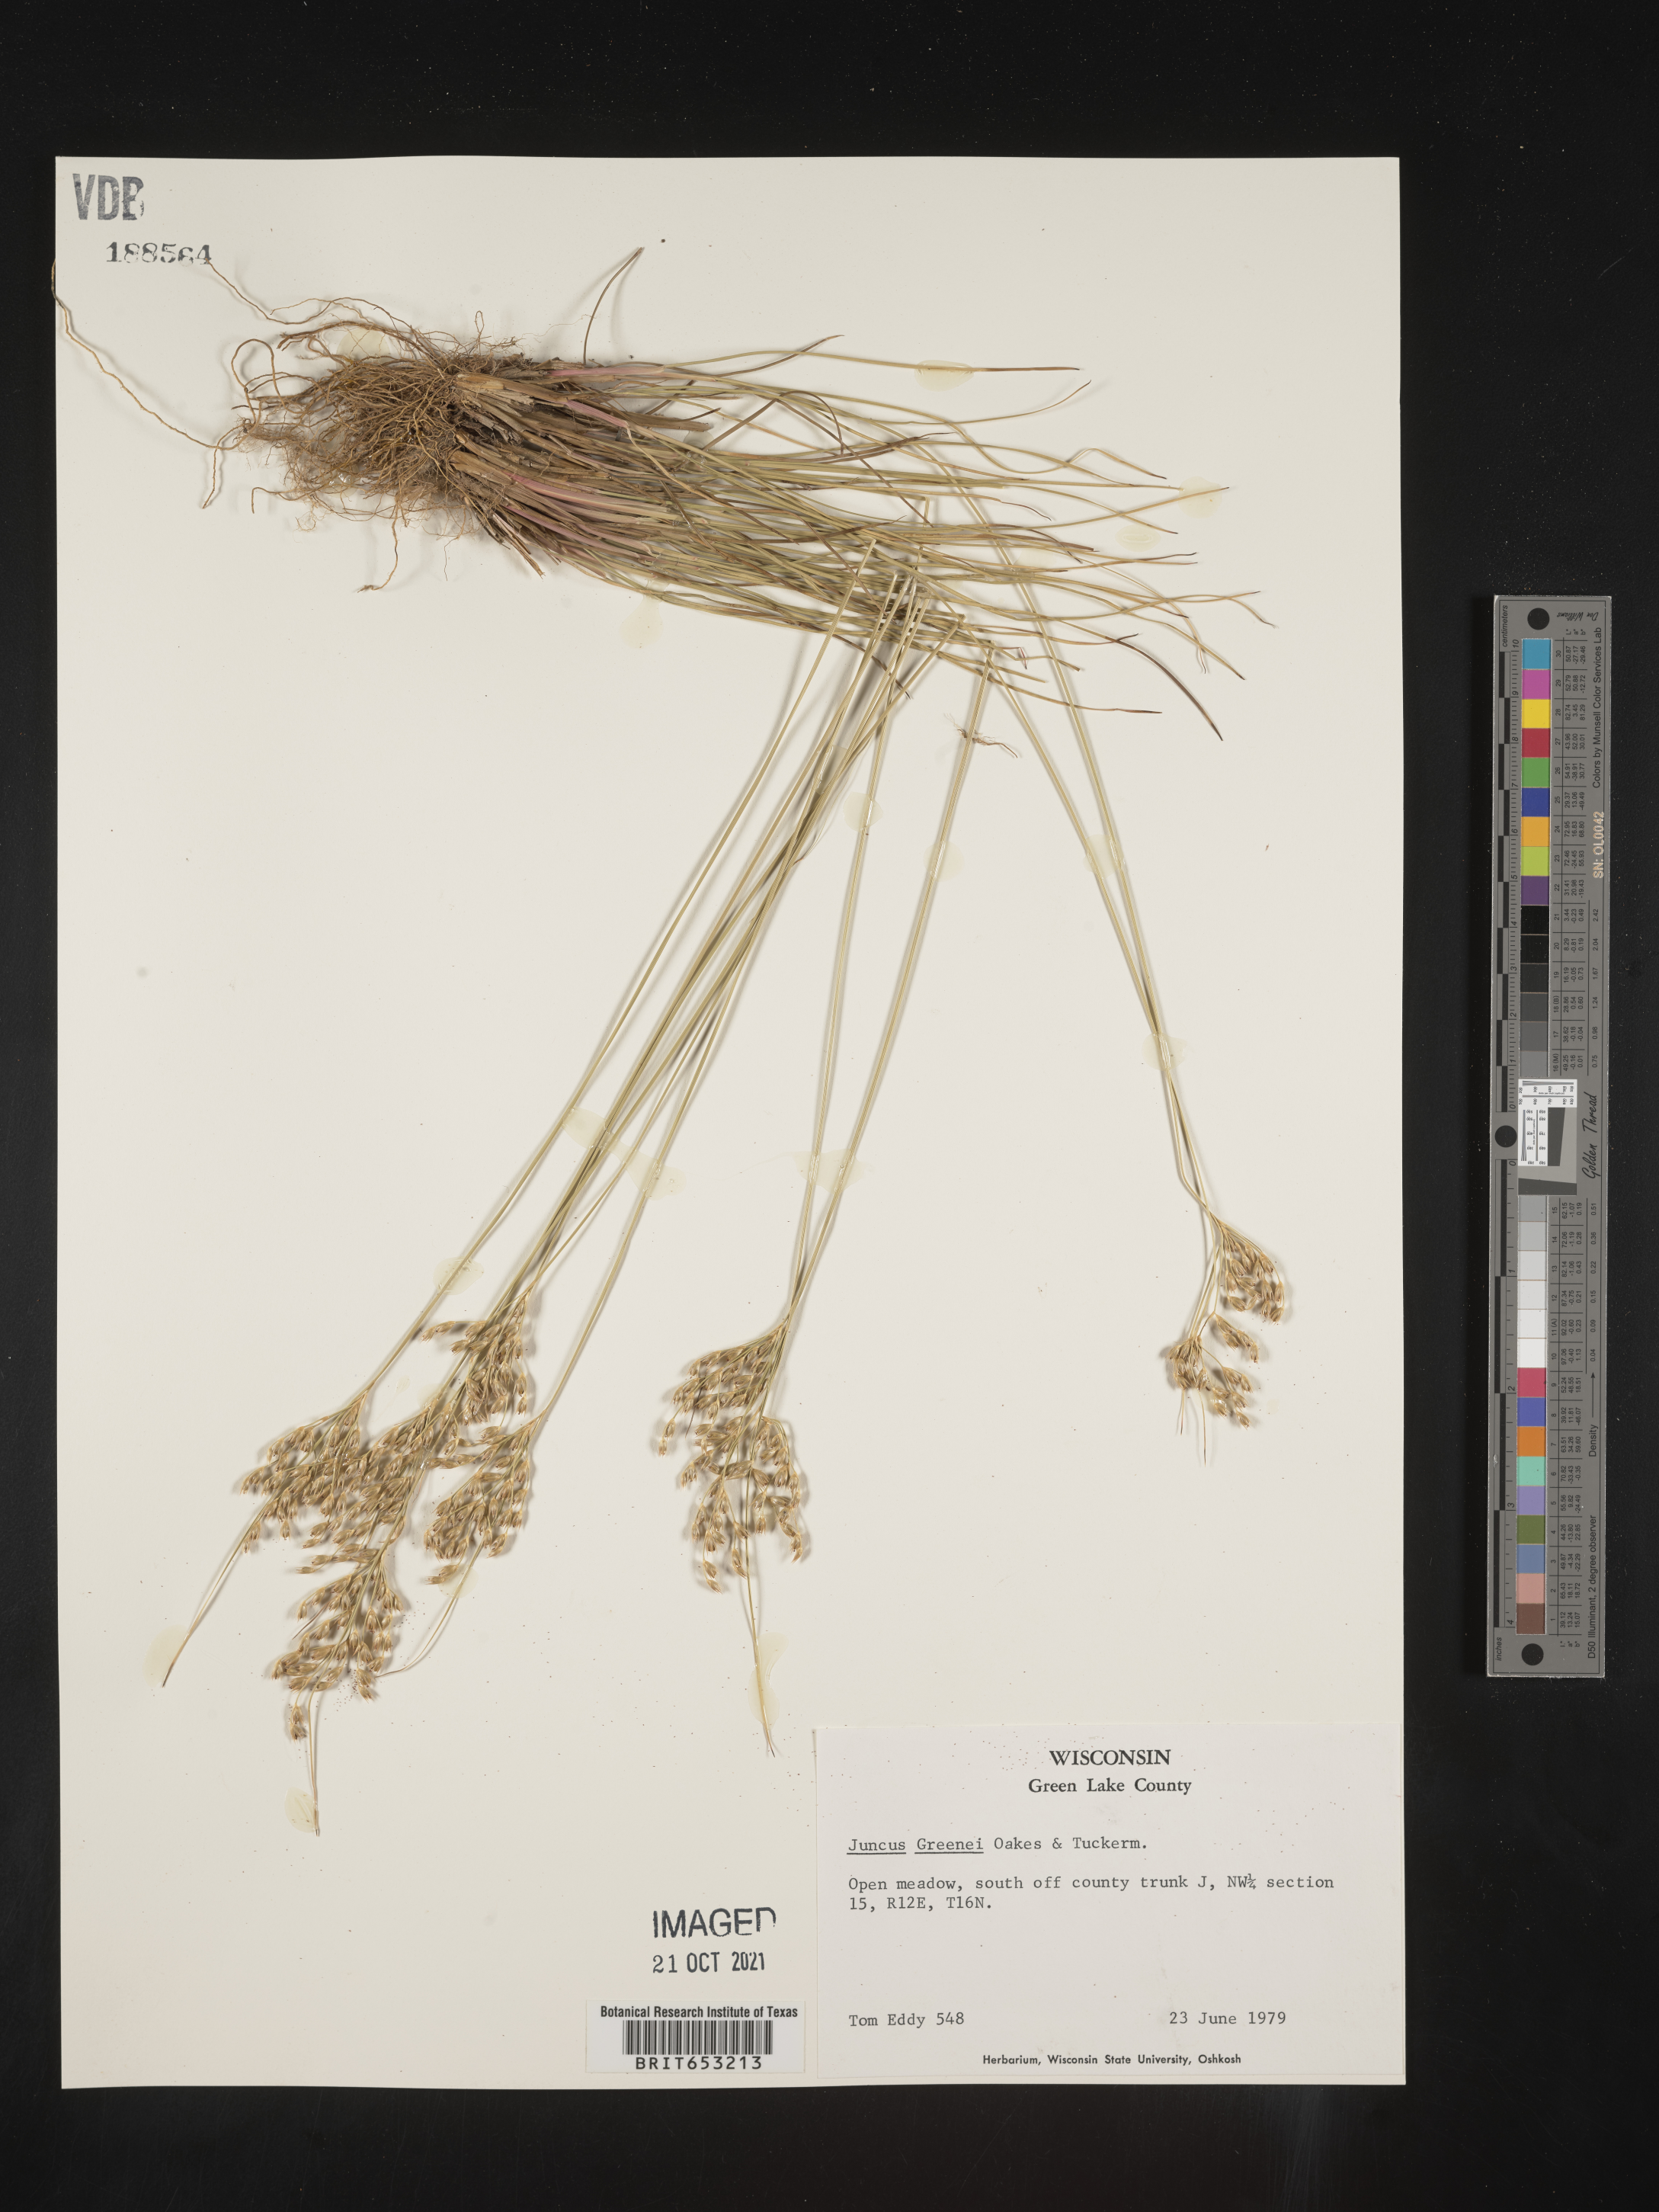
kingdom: Plantae
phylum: Tracheophyta
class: Liliopsida
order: Poales
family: Juncaceae
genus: Juncus
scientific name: Juncus greenei
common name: Greene's rush
